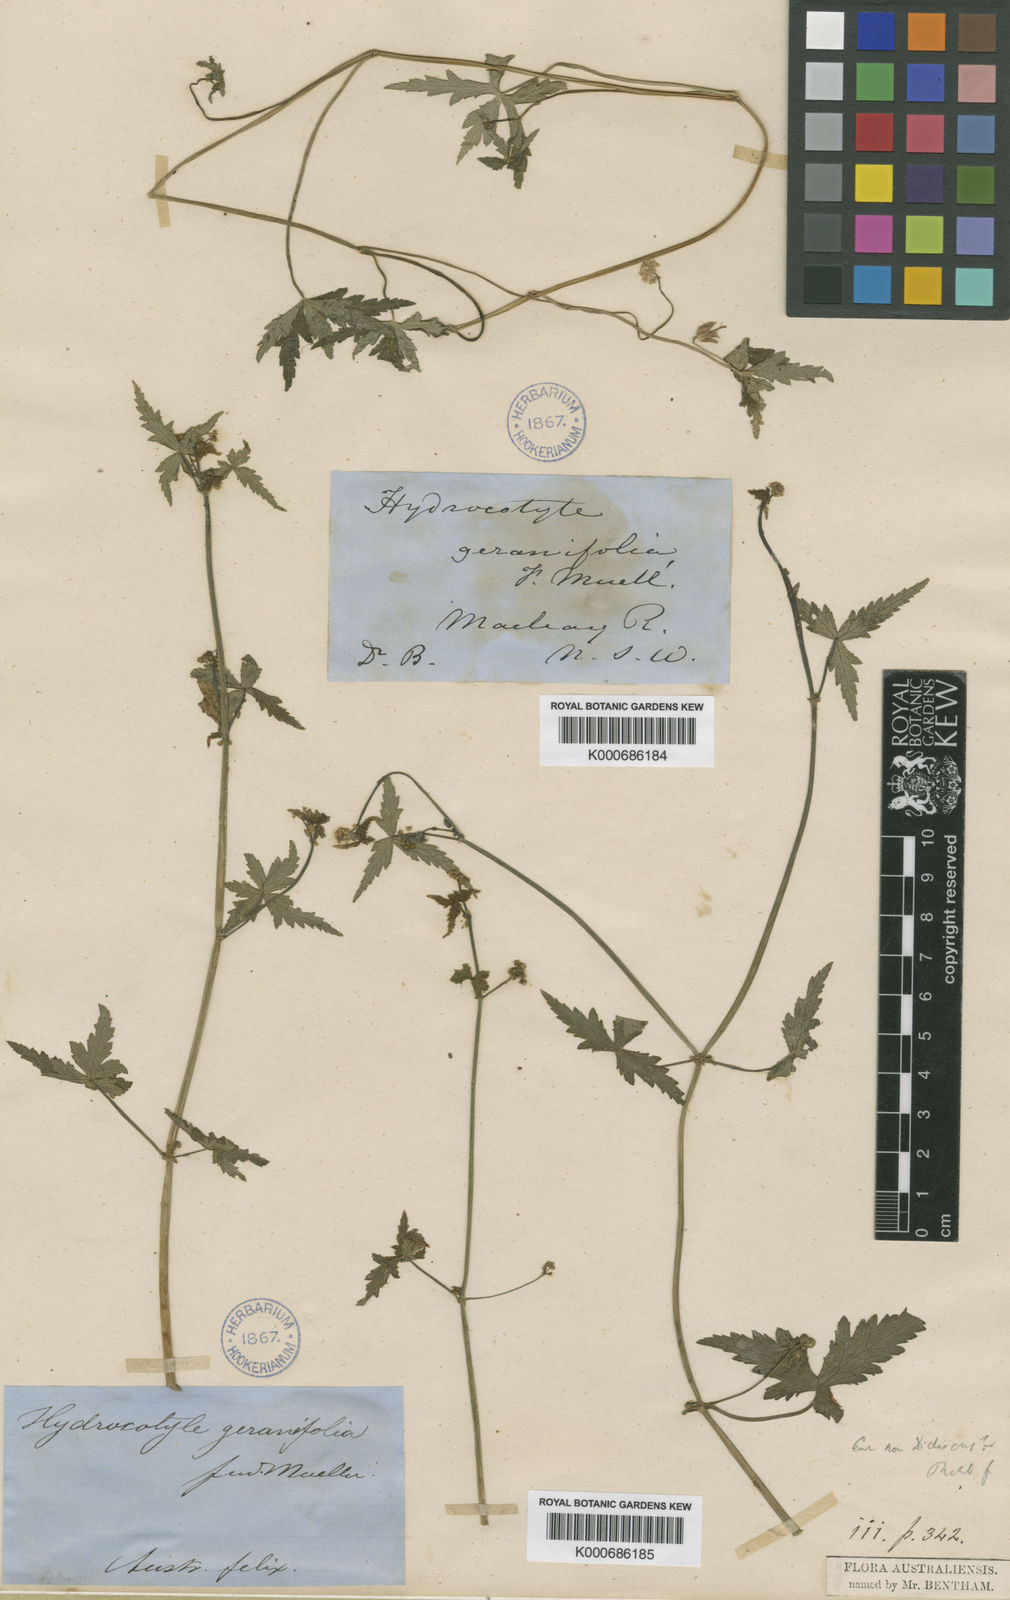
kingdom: Plantae
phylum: Tracheophyta
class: Magnoliopsida
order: Apiales
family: Araliaceae
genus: Hydrocotyle
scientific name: Hydrocotyle geraniifolia
